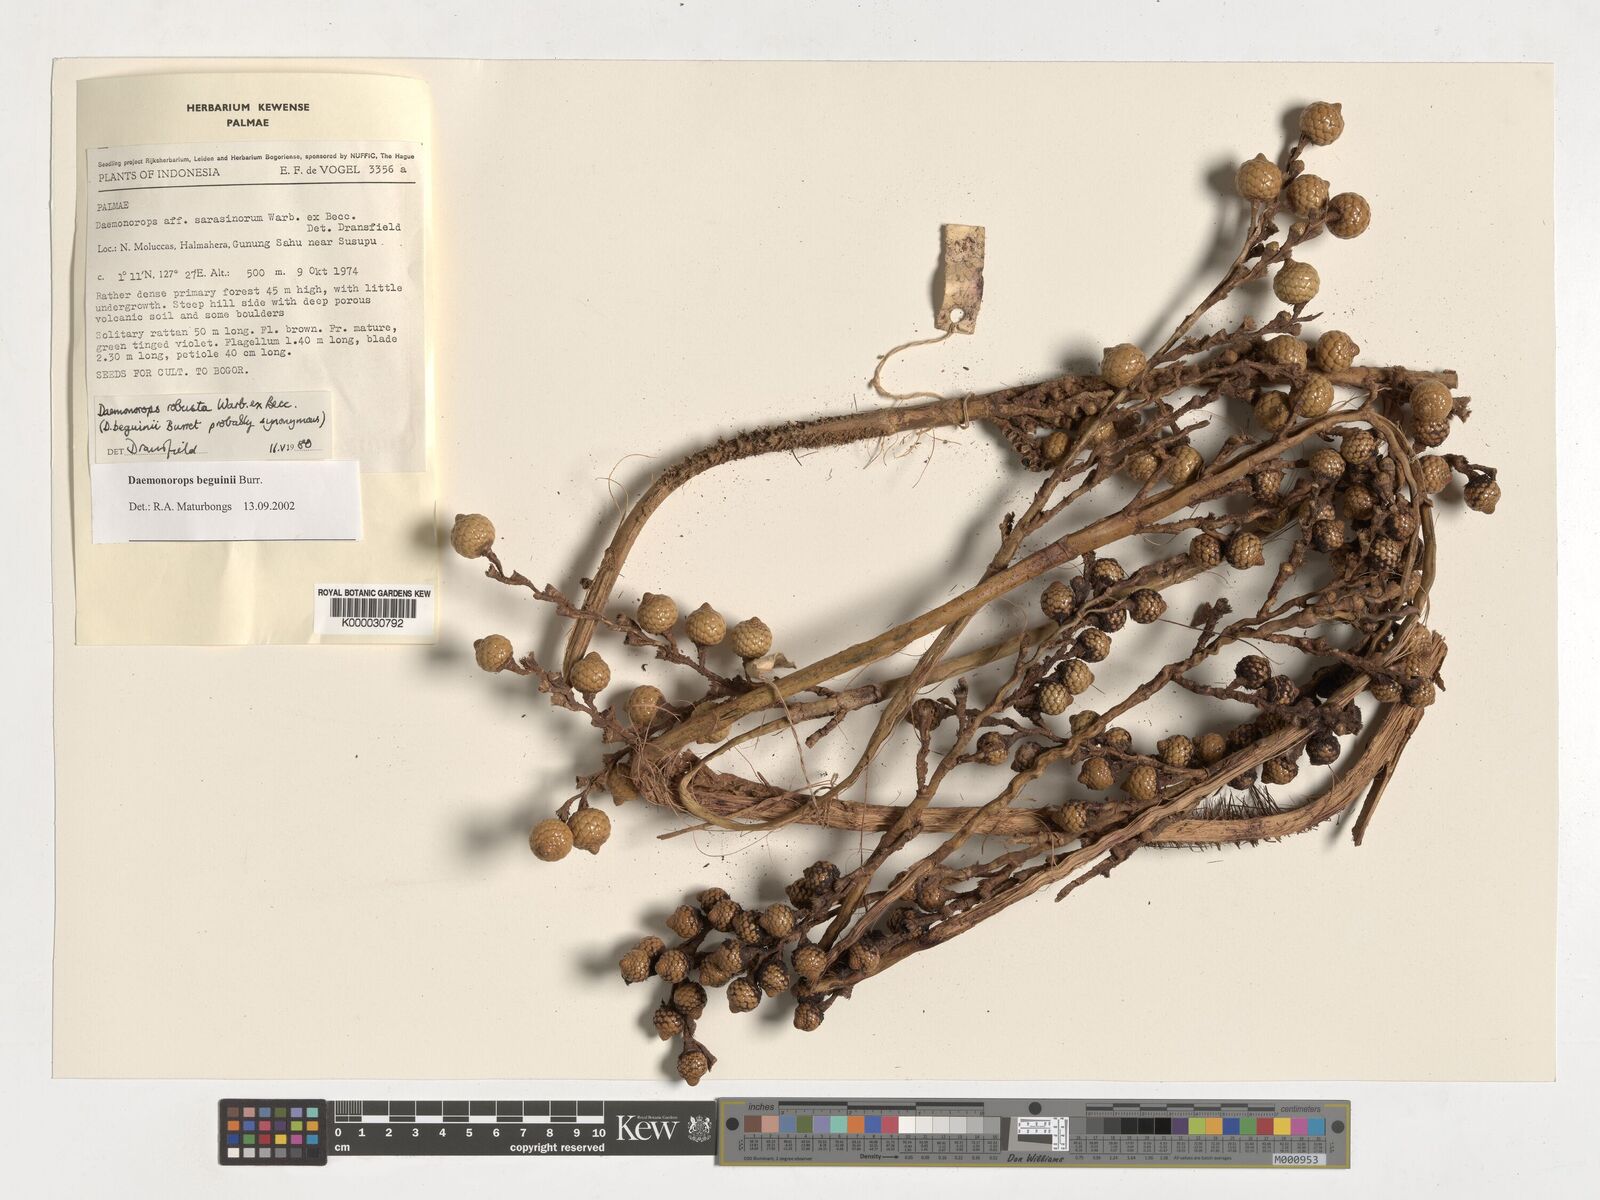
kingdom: Plantae
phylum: Tracheophyta
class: Liliopsida
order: Arecales
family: Arecaceae
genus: Calamus
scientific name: Calamus calapparius
